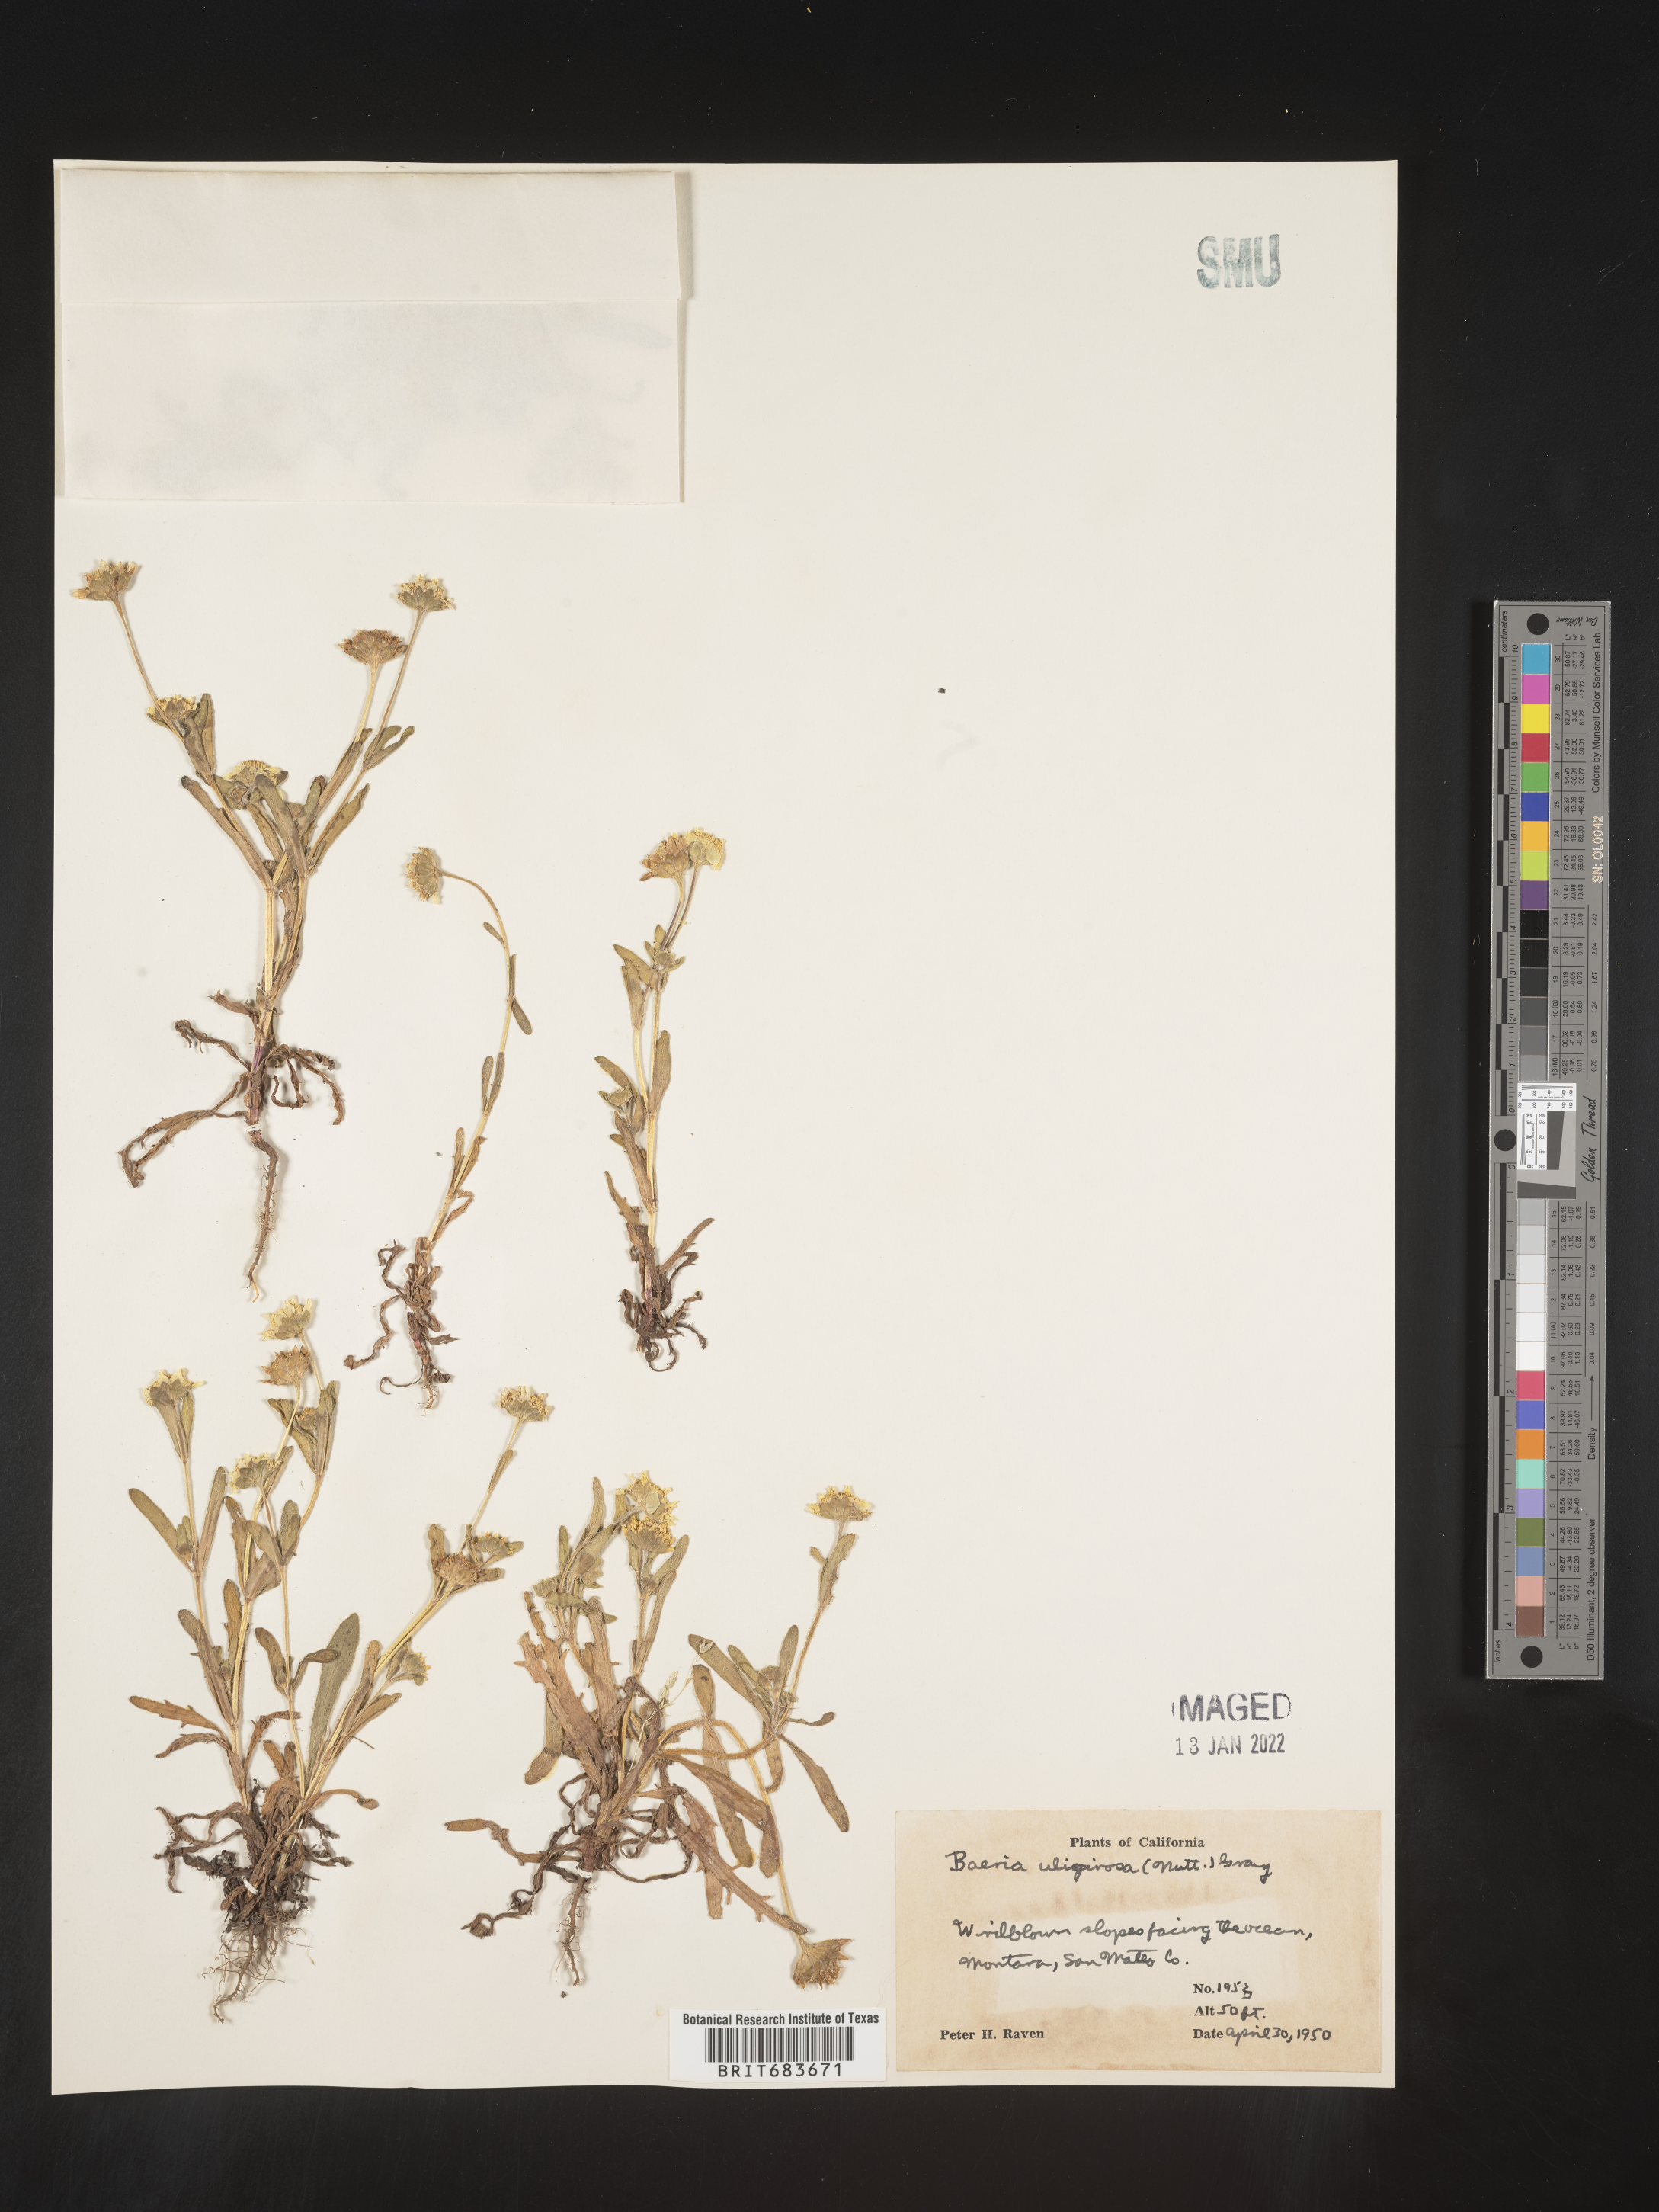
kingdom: Plantae
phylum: Tracheophyta
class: Magnoliopsida
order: Asterales
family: Asteraceae
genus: Lasthenia
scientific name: Lasthenia
